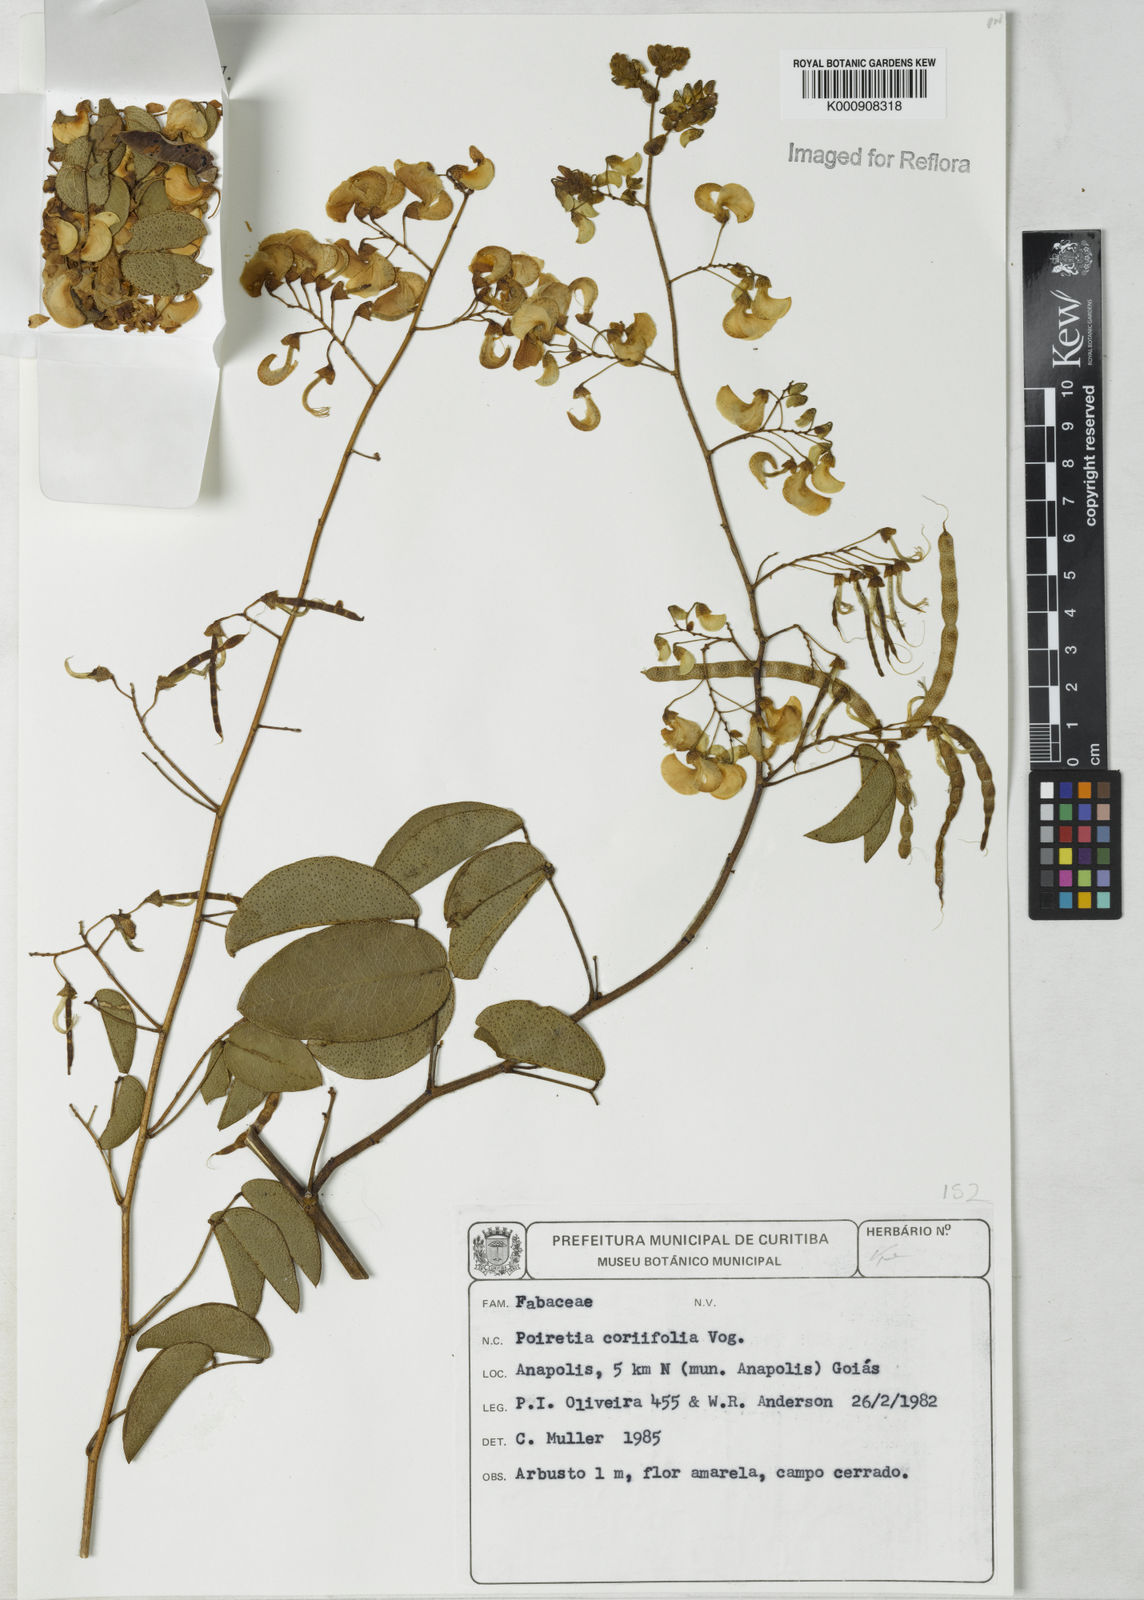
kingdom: Plantae
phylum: Tracheophyta
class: Magnoliopsida
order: Fabales
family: Fabaceae
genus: Poiretia
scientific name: Poiretia coriifolia
